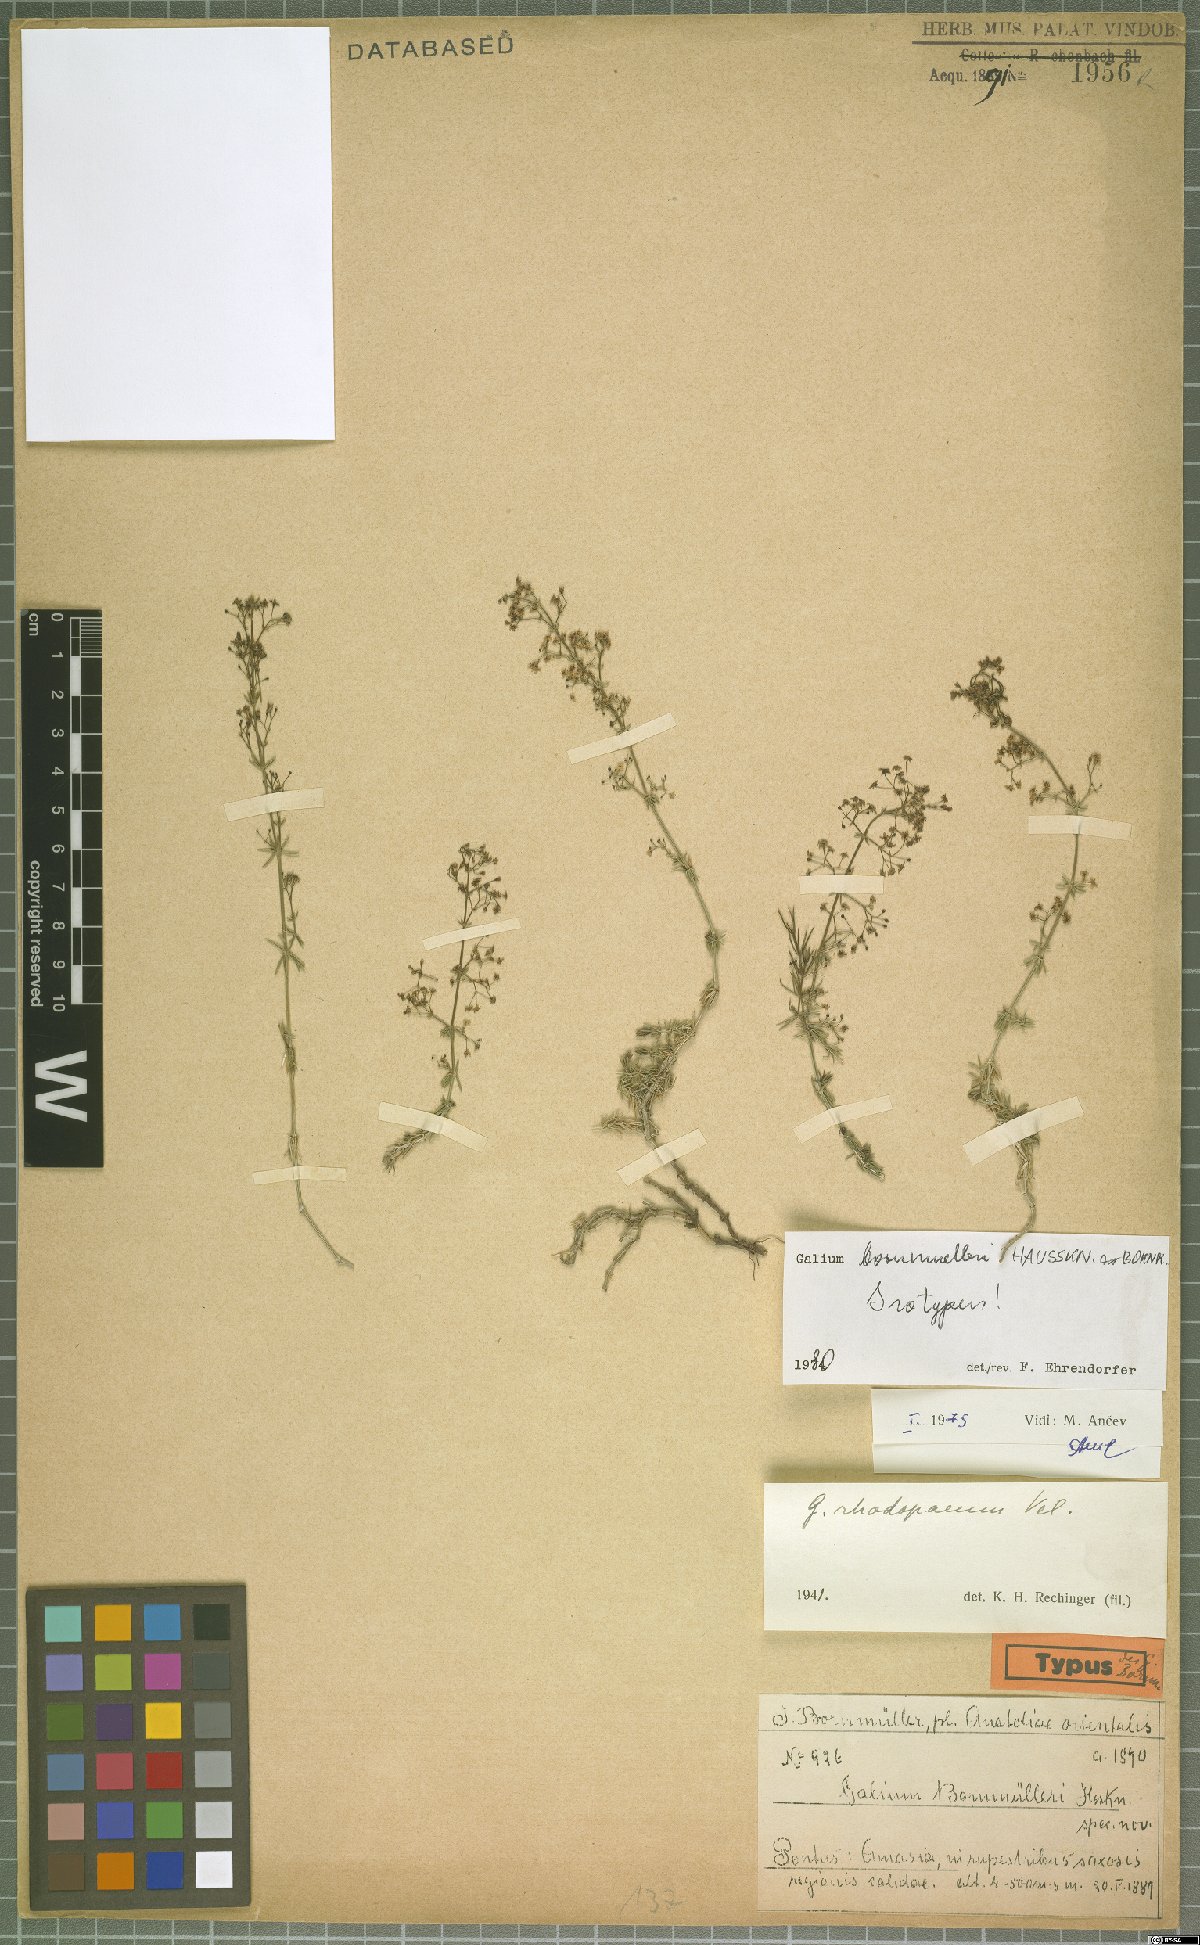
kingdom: Plantae
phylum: Tracheophyta
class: Magnoliopsida
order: Gentianales
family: Rubiaceae
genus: Galium
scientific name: Galium bornmuelleri
